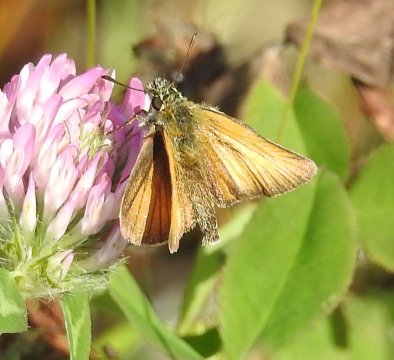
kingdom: Animalia
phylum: Arthropoda
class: Insecta
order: Lepidoptera
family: Hesperiidae
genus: Thymelicus
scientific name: Thymelicus lineola
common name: European Skipper
